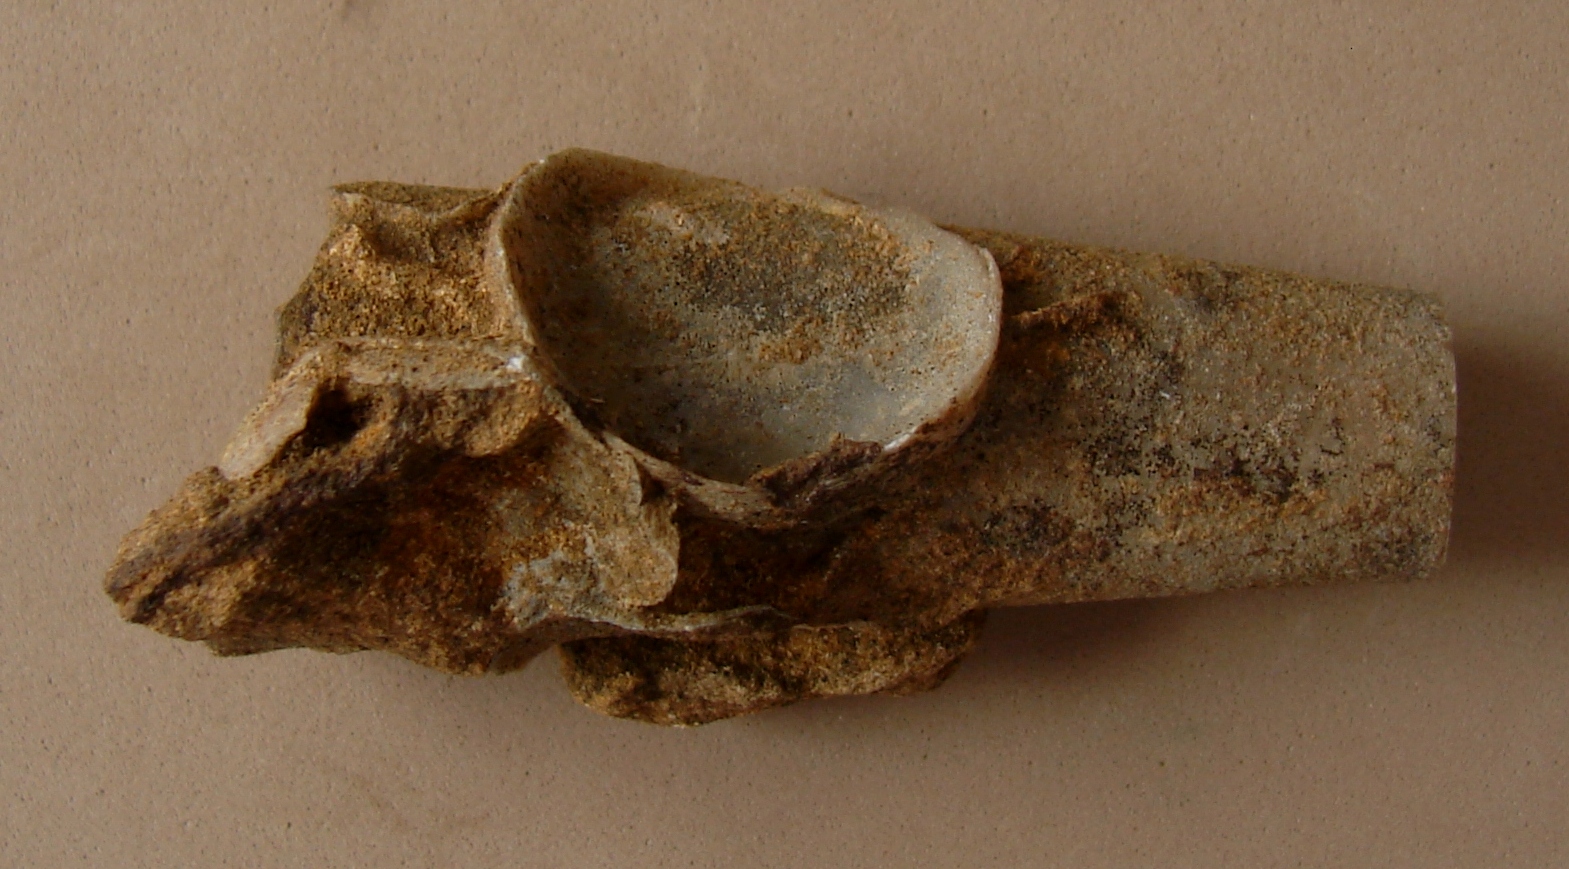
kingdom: Animalia
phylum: Mollusca
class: Cephalopoda
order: Belemnitida
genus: Eocylindroteuthis
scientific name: Eocylindroteuthis
